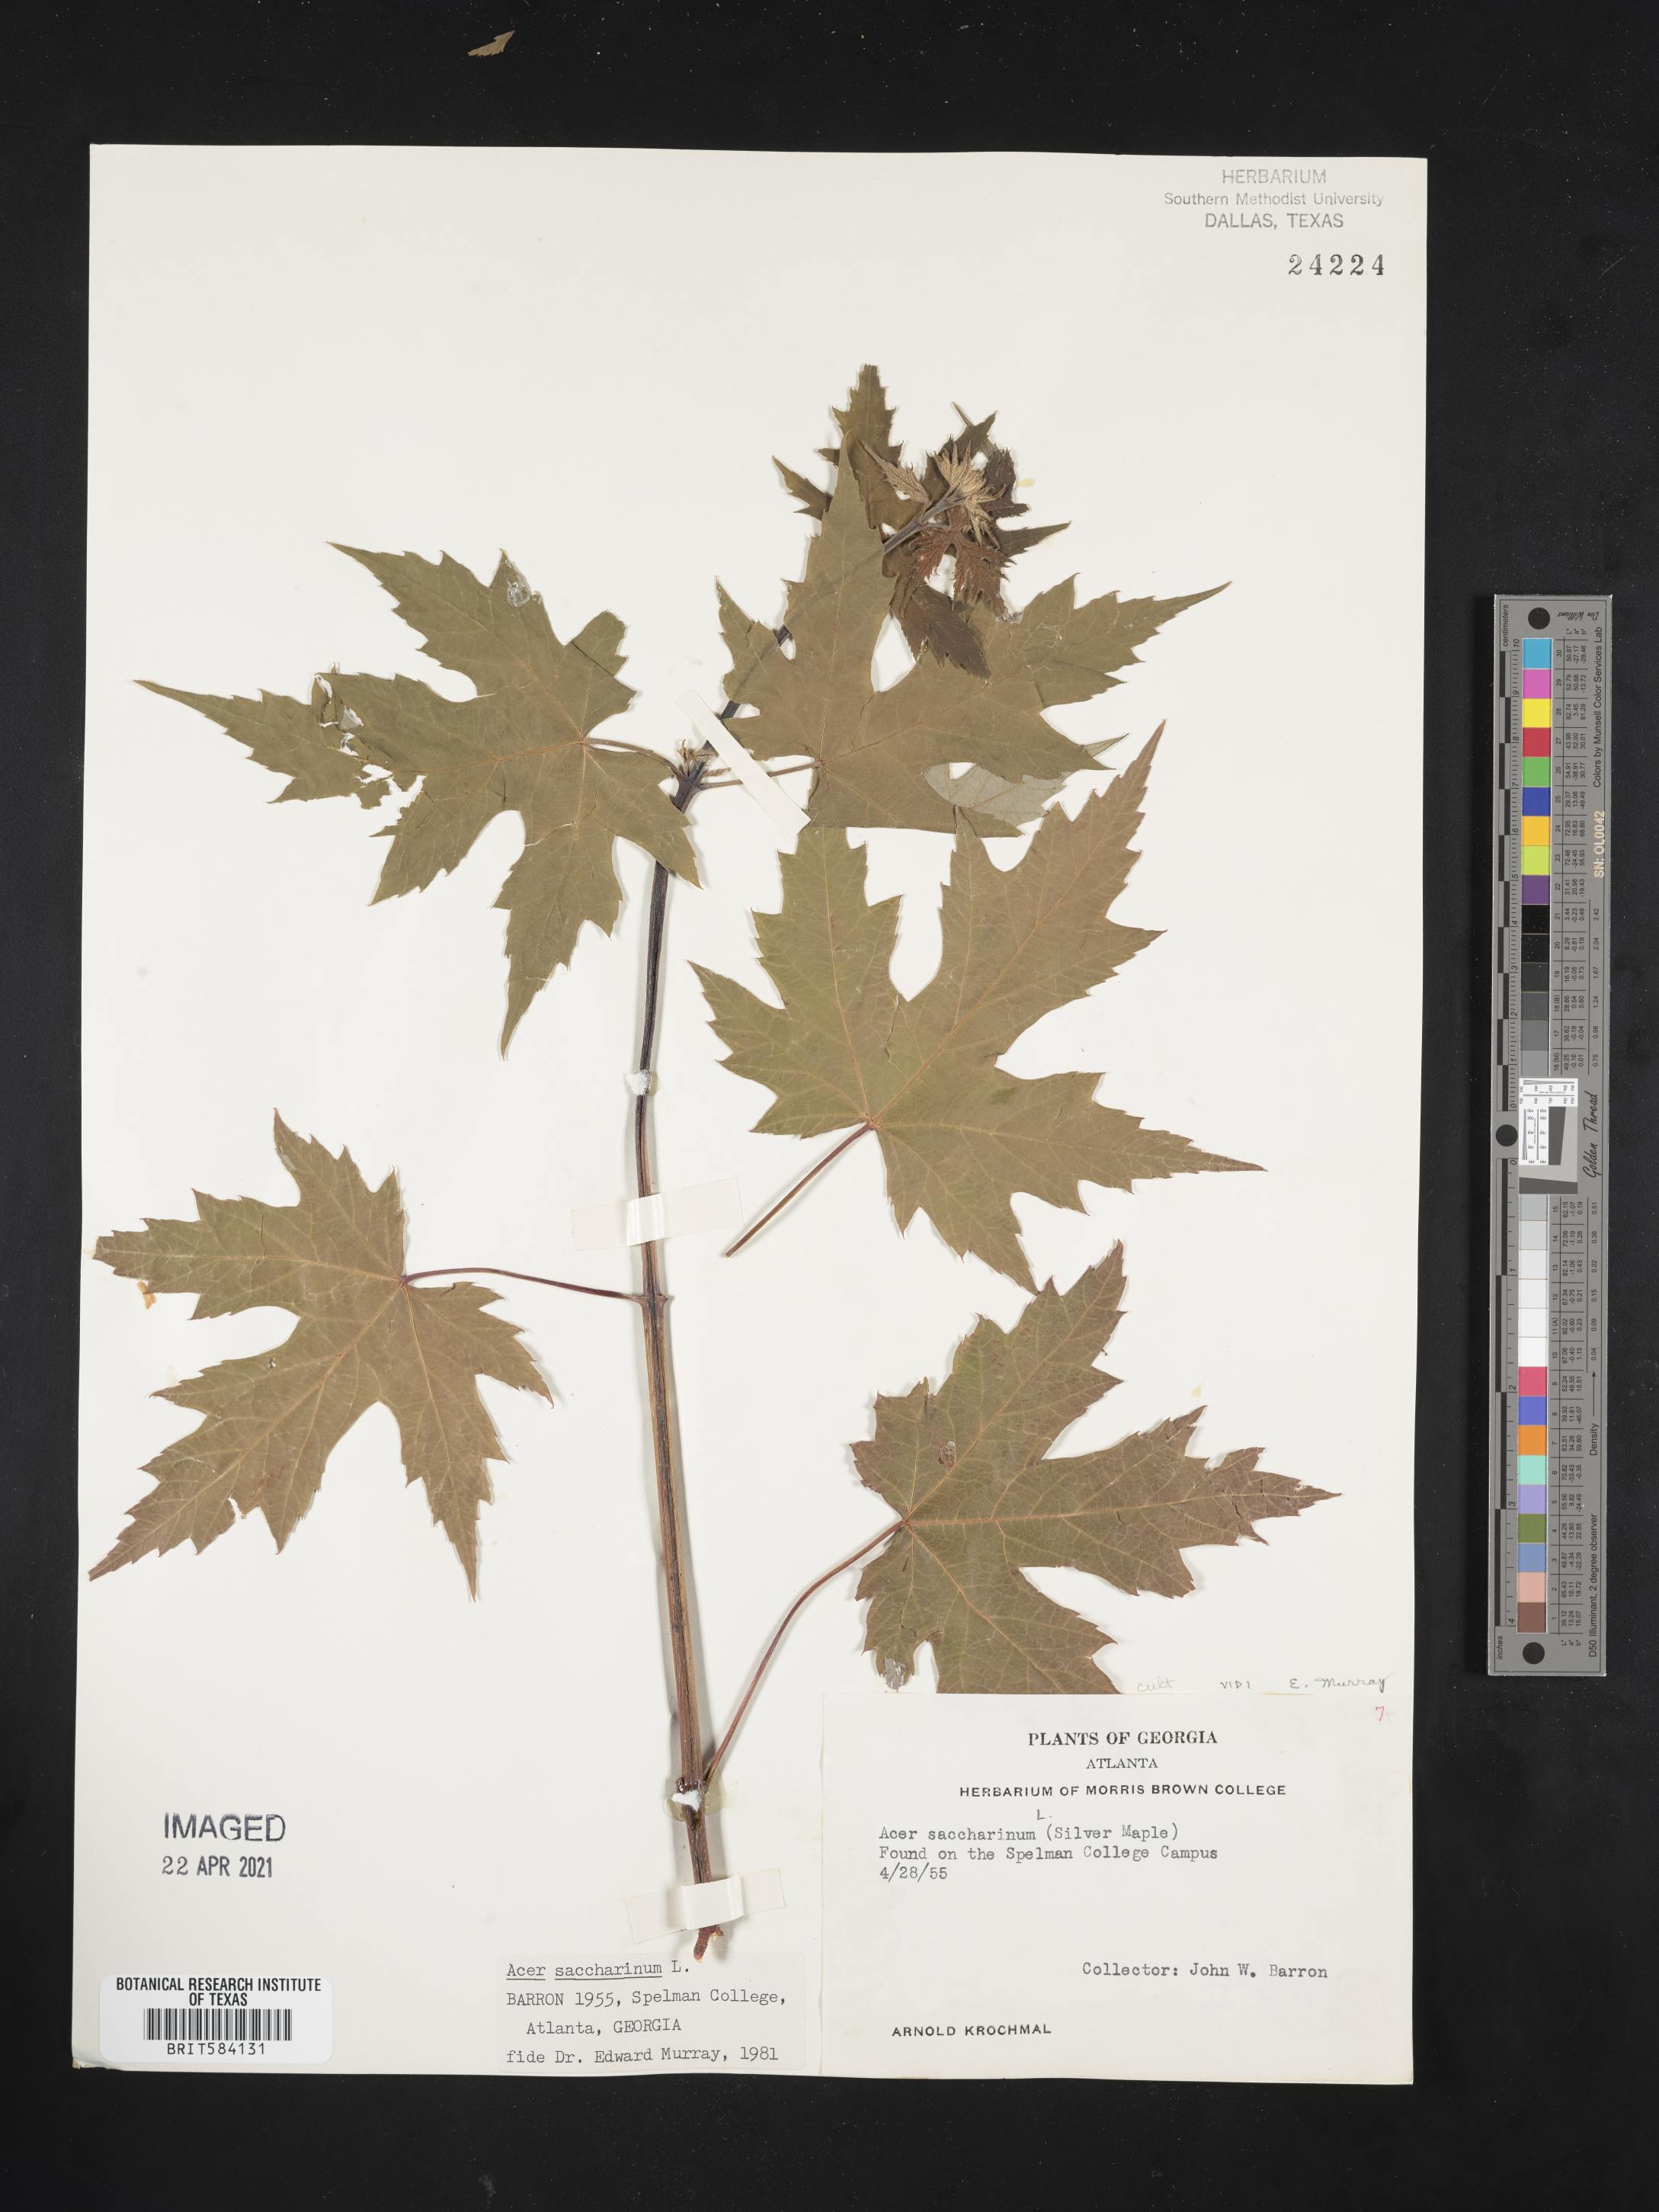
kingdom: Plantae
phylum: Tracheophyta
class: Magnoliopsida
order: Sapindales
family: Sapindaceae
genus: Acer
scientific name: Acer saccharinum
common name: Silver maple
